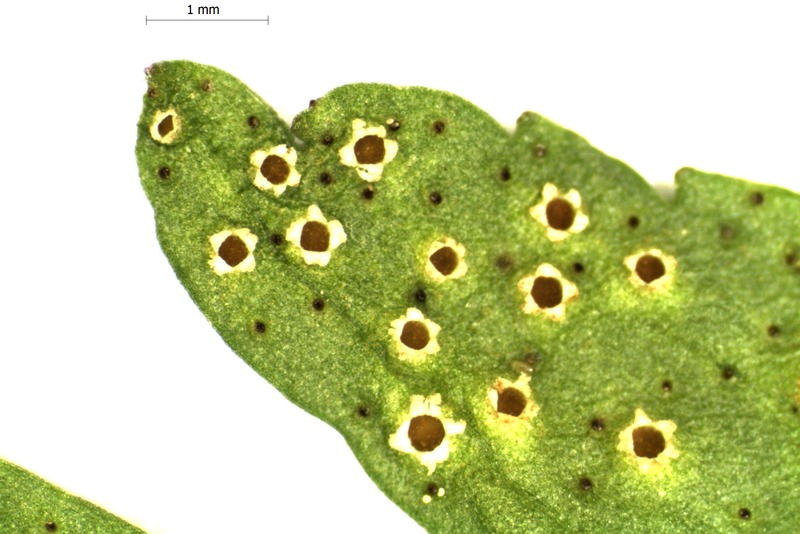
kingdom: Fungi
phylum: Basidiomycota
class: Pucciniomycetes
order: Pucciniales
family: Tranzscheliaceae
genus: Tranzschelia
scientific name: Tranzschelia pruni-spinosae
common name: Blackthorn rust
